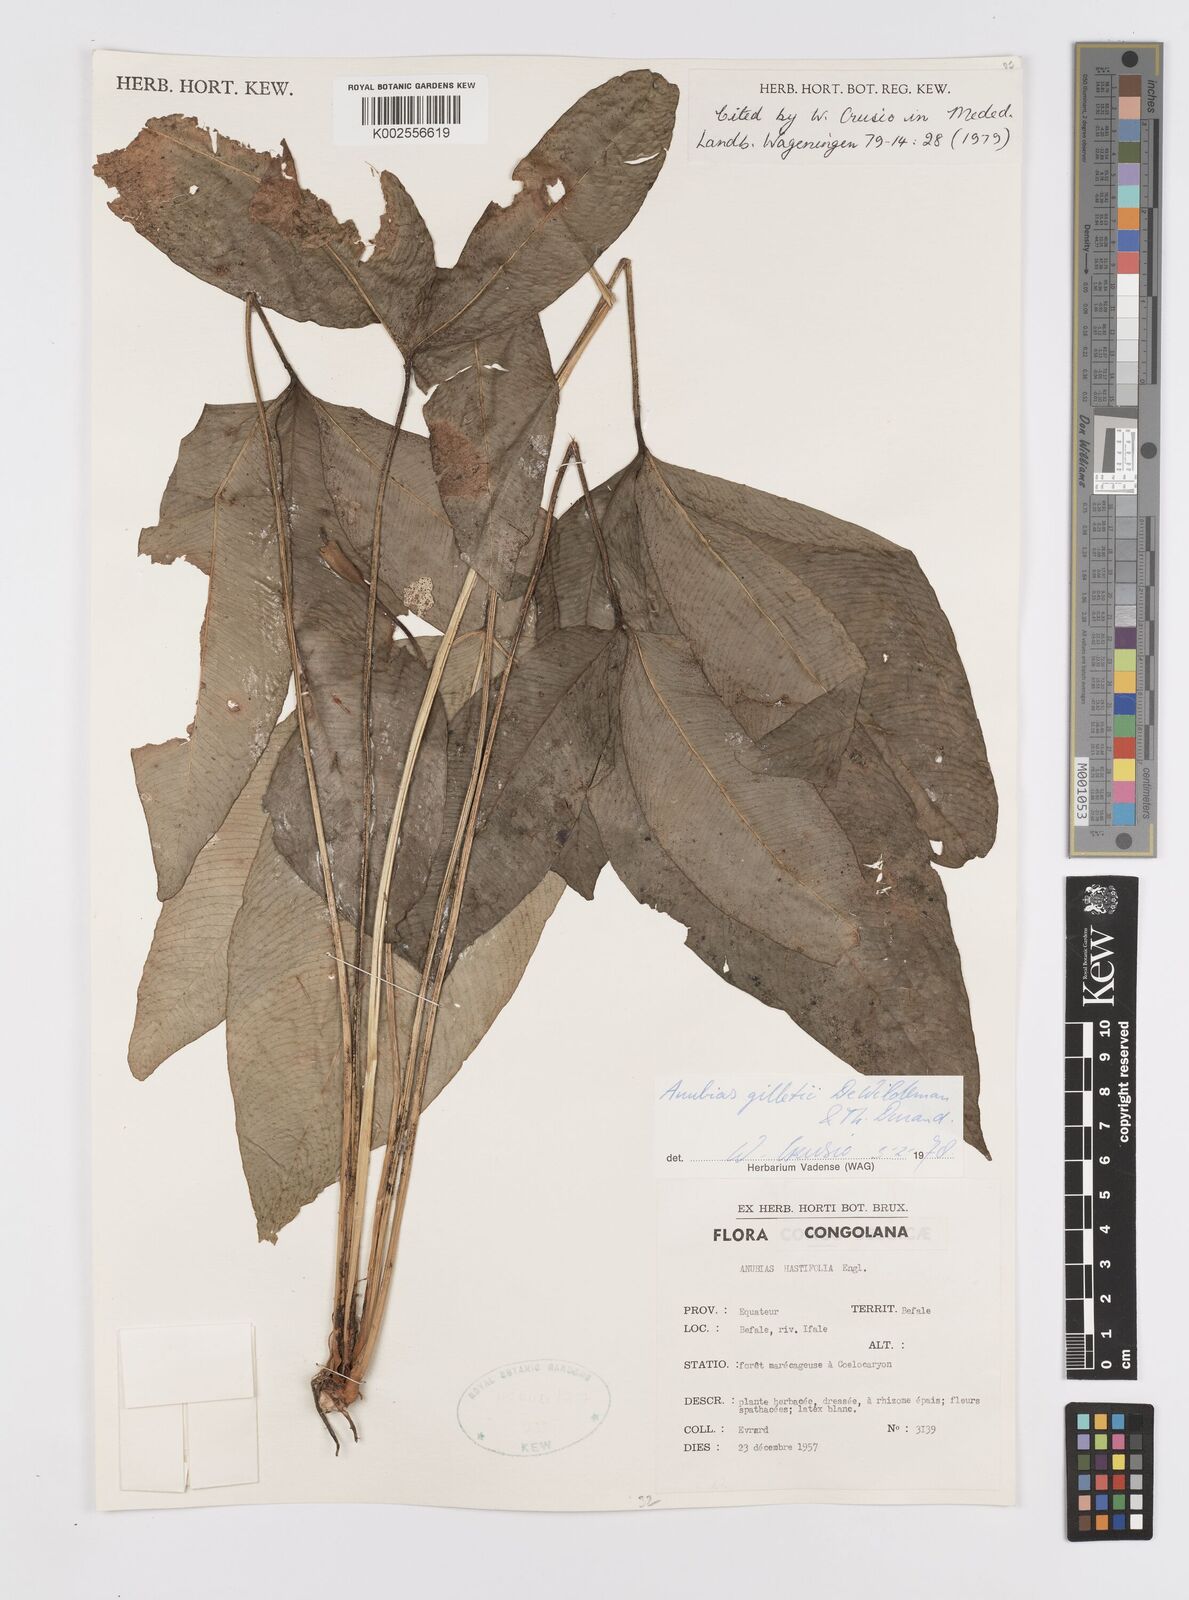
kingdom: Plantae
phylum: Tracheophyta
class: Liliopsida
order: Alismatales
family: Araceae
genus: Anubias
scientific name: Anubias gilletii
